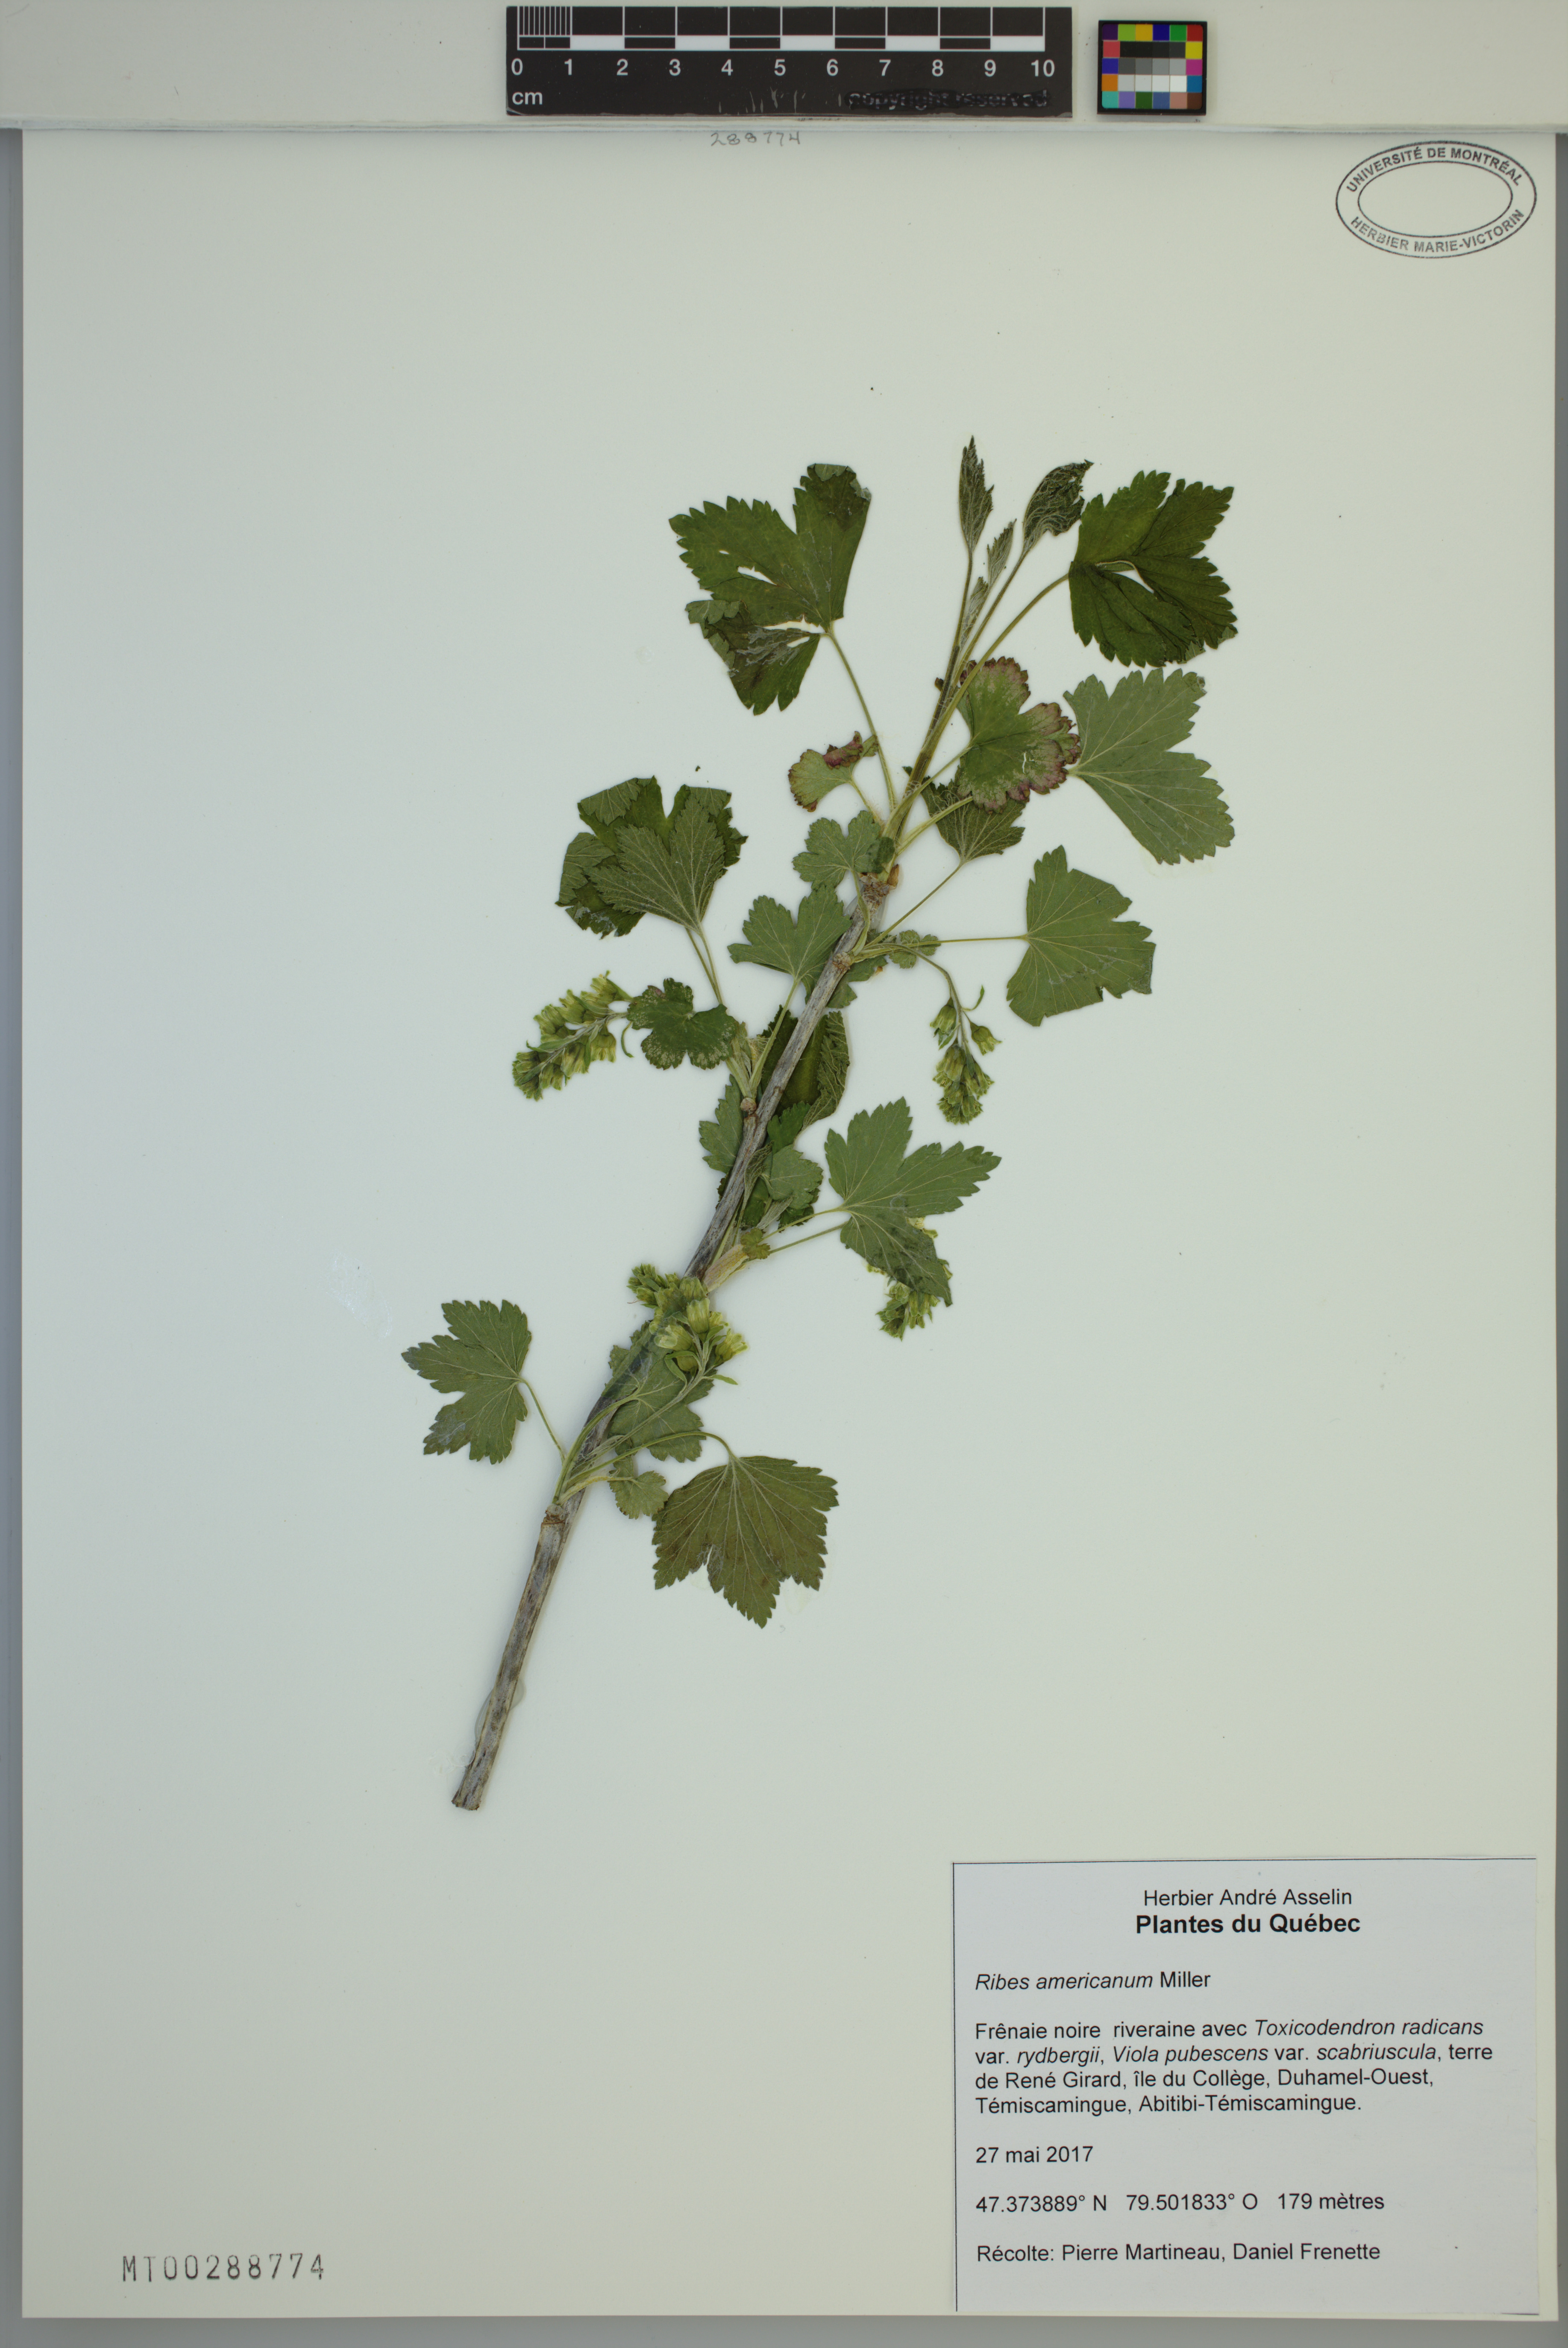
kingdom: Plantae
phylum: Tracheophyta
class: Magnoliopsida
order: Saxifragales
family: Grossulariaceae
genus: Ribes
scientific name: Ribes americanum
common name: American black currant
